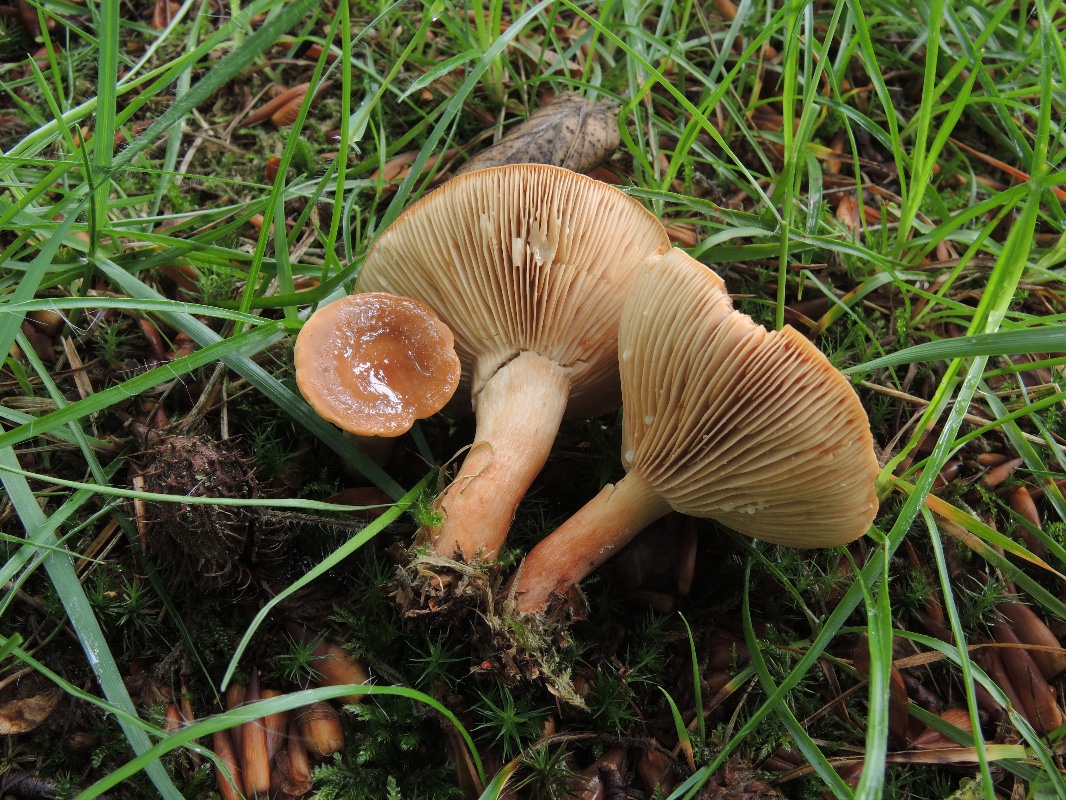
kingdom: Fungi
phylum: Basidiomycota
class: Agaricomycetes
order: Russulales
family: Russulaceae
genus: Lactarius
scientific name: Lactarius subdulcis
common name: sødlig mælkehat
